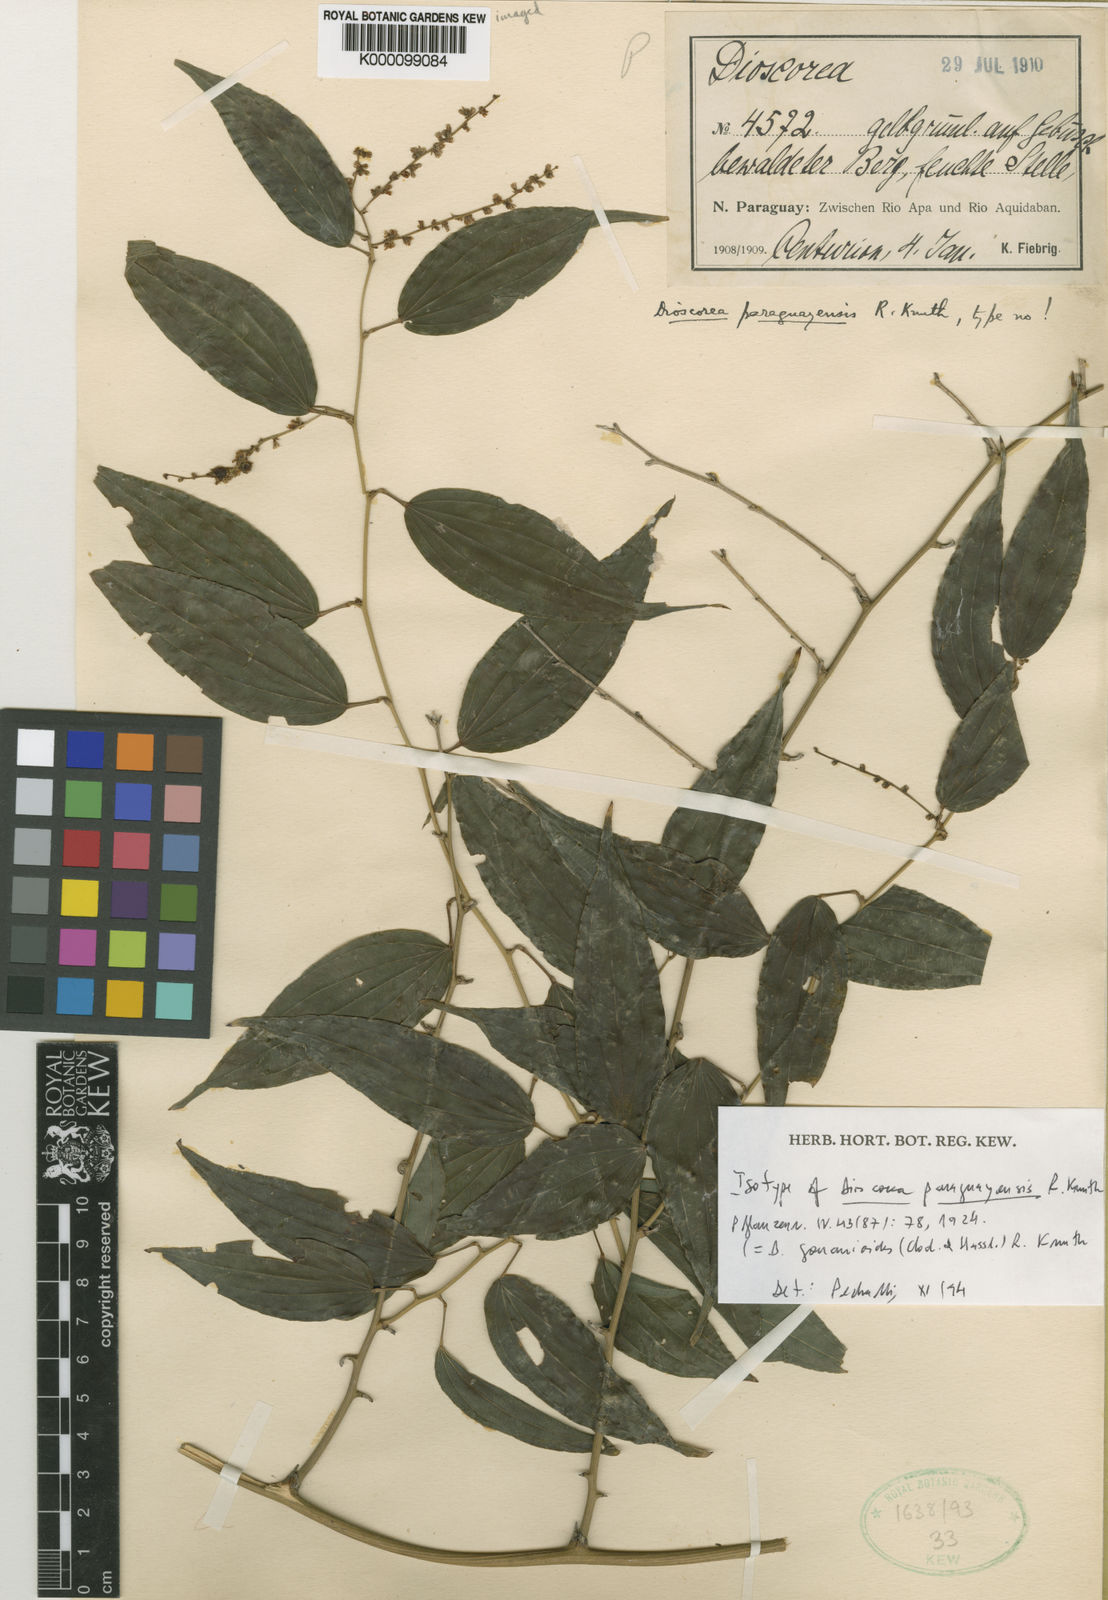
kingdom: Plantae
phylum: Tracheophyta
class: Liliopsida
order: Dioscoreales
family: Dioscoreaceae
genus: Dioscorea
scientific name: Dioscorea acanthogene
